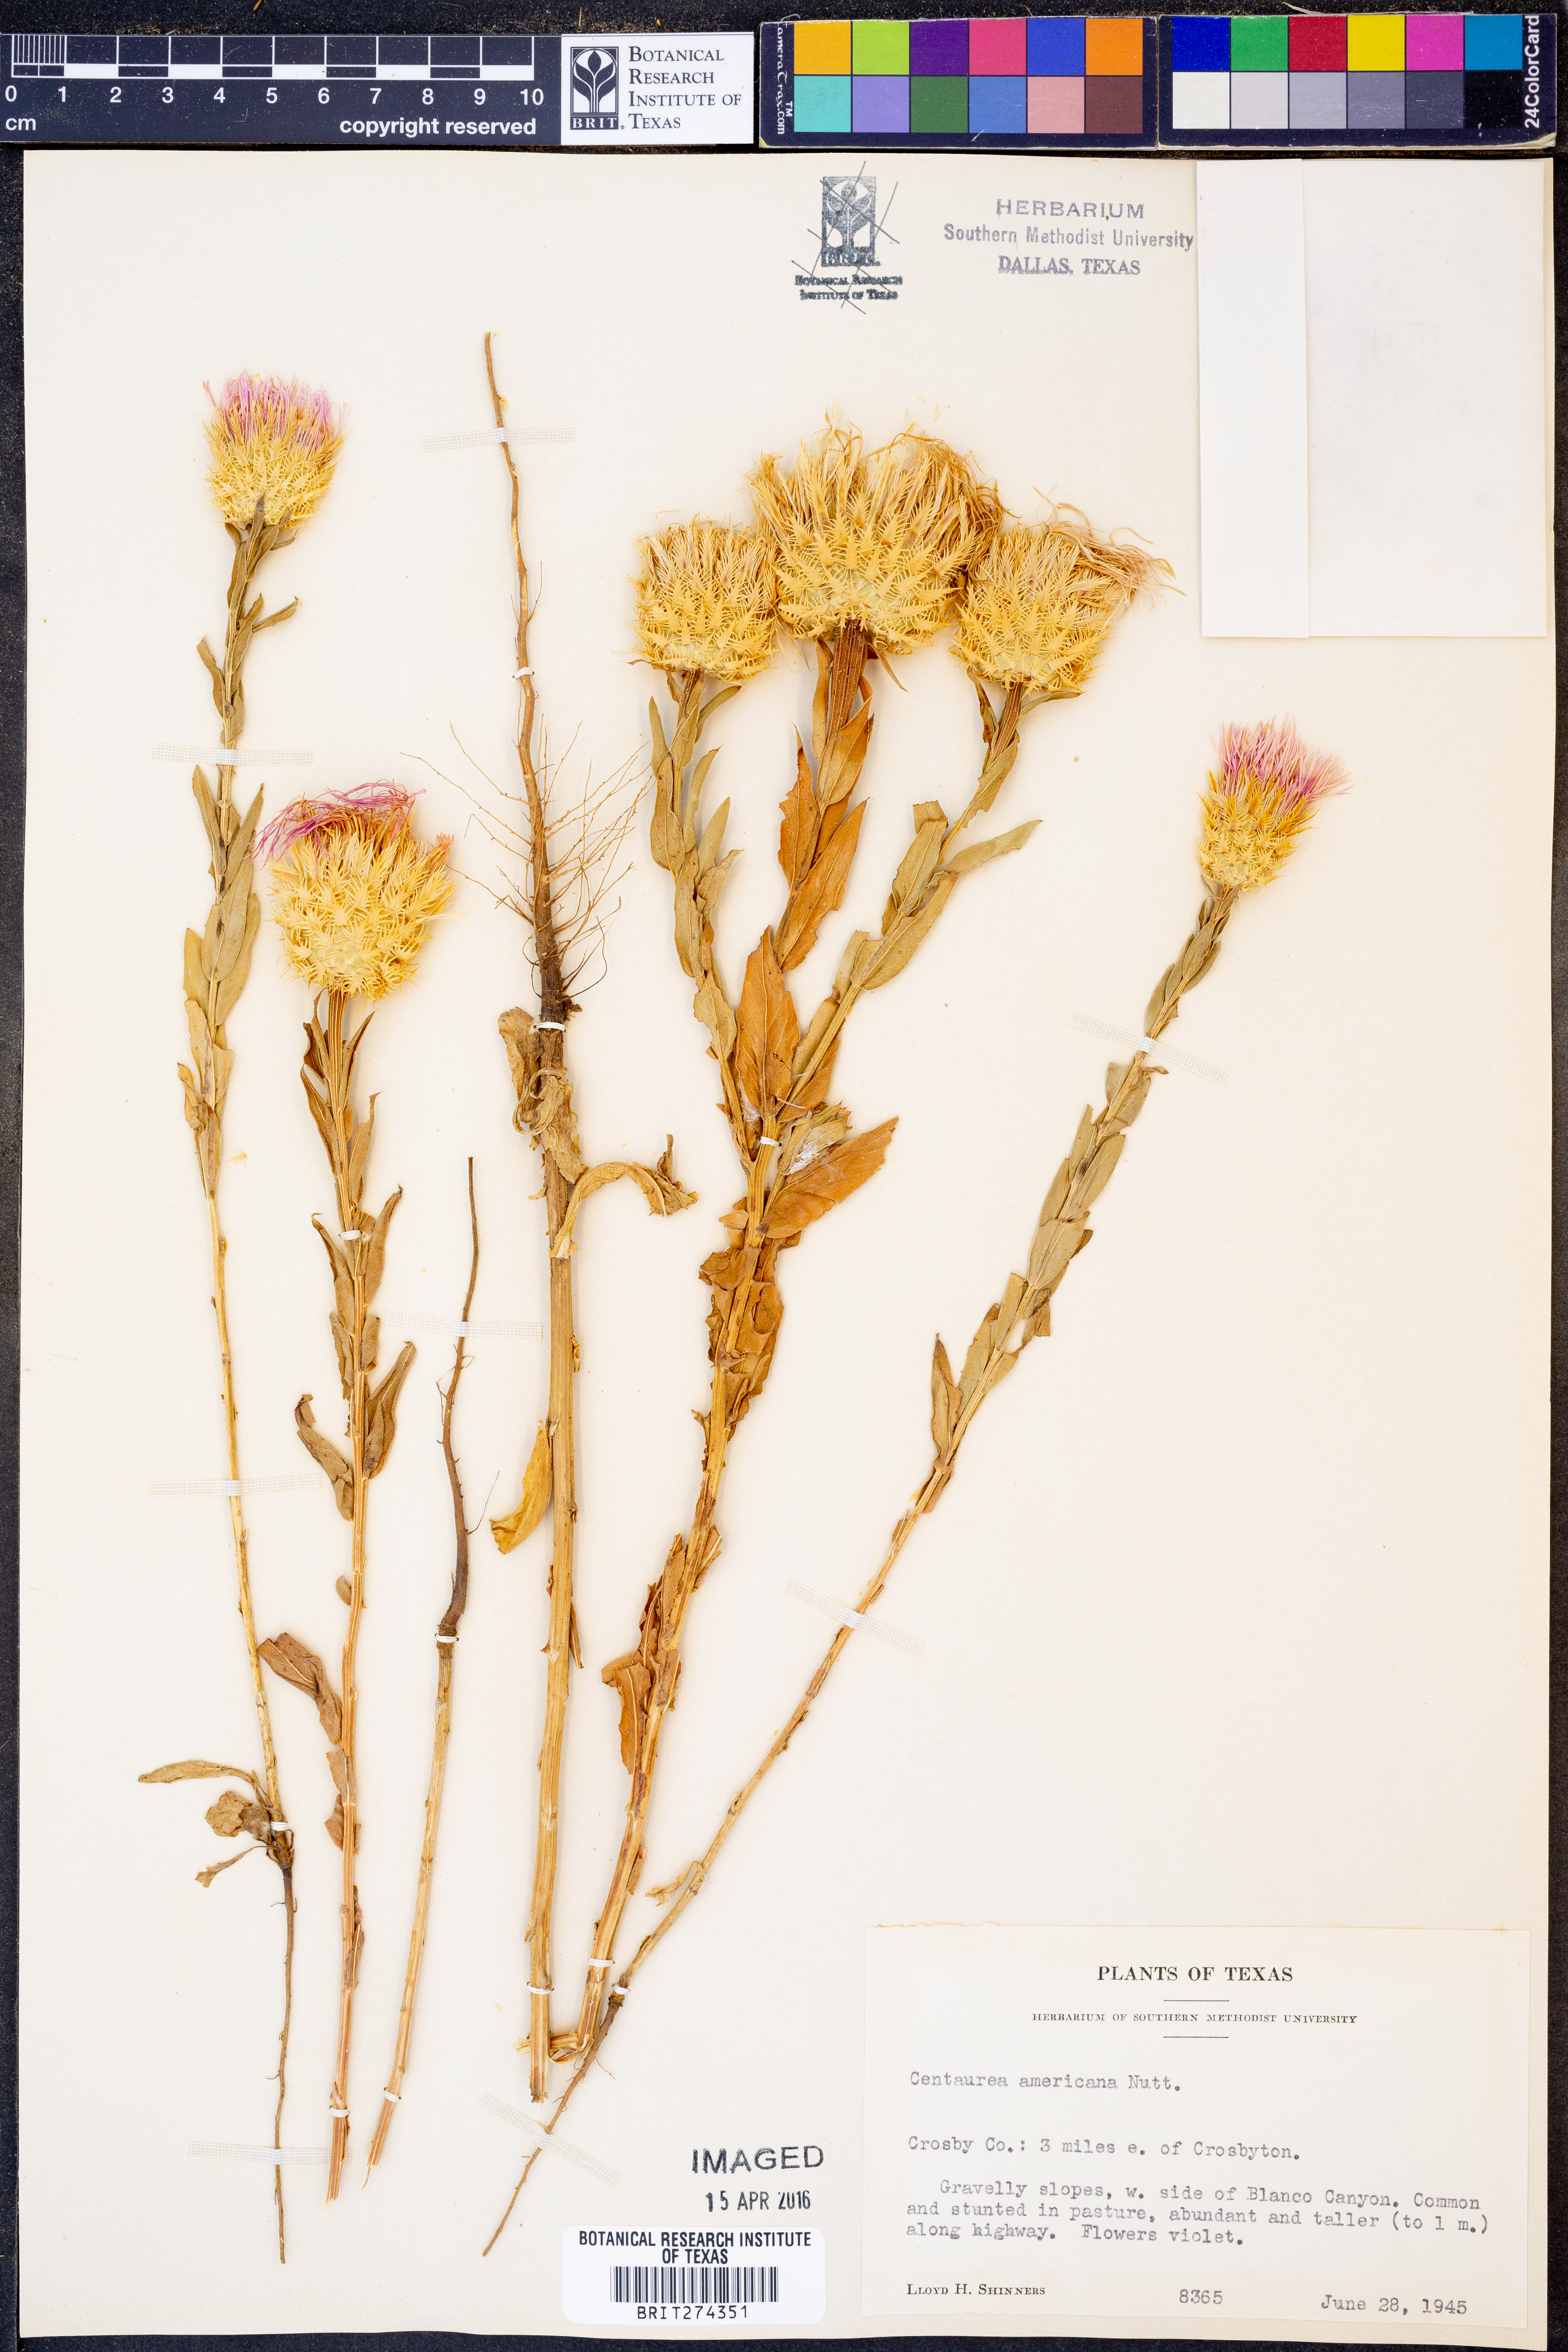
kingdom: Plantae
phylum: Tracheophyta
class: Magnoliopsida
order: Asterales
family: Asteraceae
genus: Plectocephalus
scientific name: Plectocephalus americanus
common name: American basket-flower
